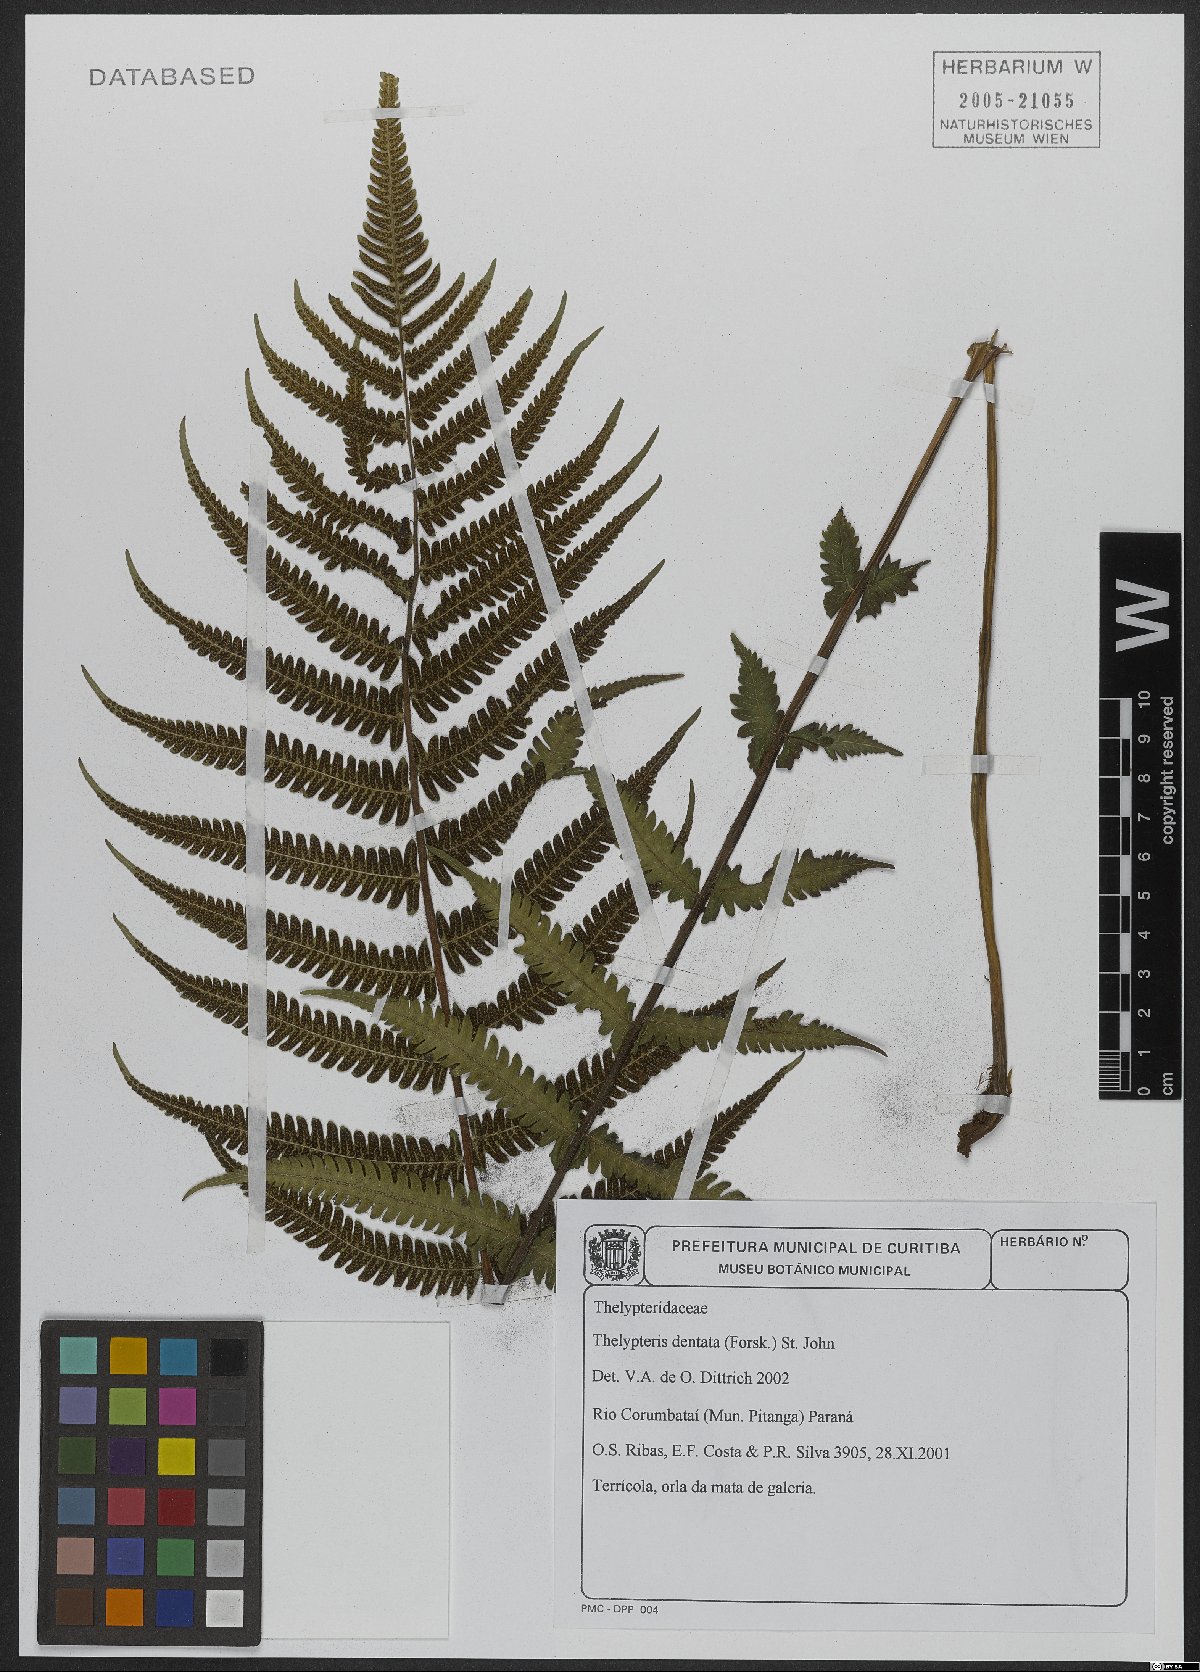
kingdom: Plantae
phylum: Tracheophyta
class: Polypodiopsida
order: Polypodiales
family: Thelypteridaceae
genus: Christella
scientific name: Christella dentata
